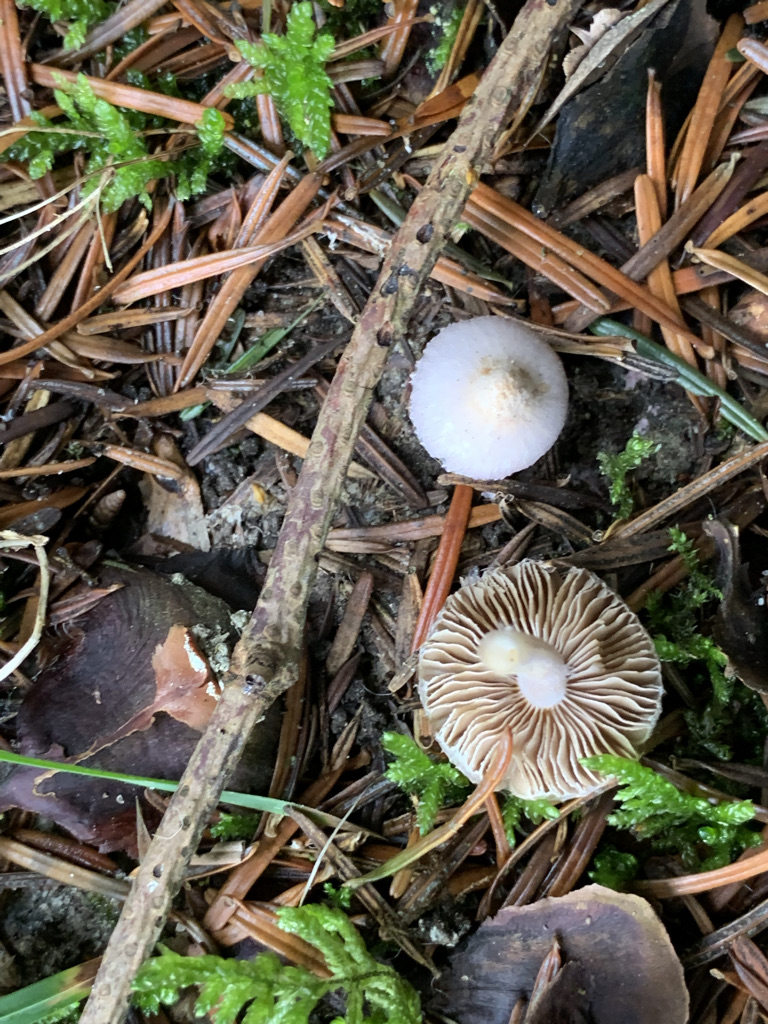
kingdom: Fungi
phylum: Basidiomycota
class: Agaricomycetes
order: Agaricales
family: Inocybaceae
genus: Inocybe
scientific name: Inocybe geophylla
